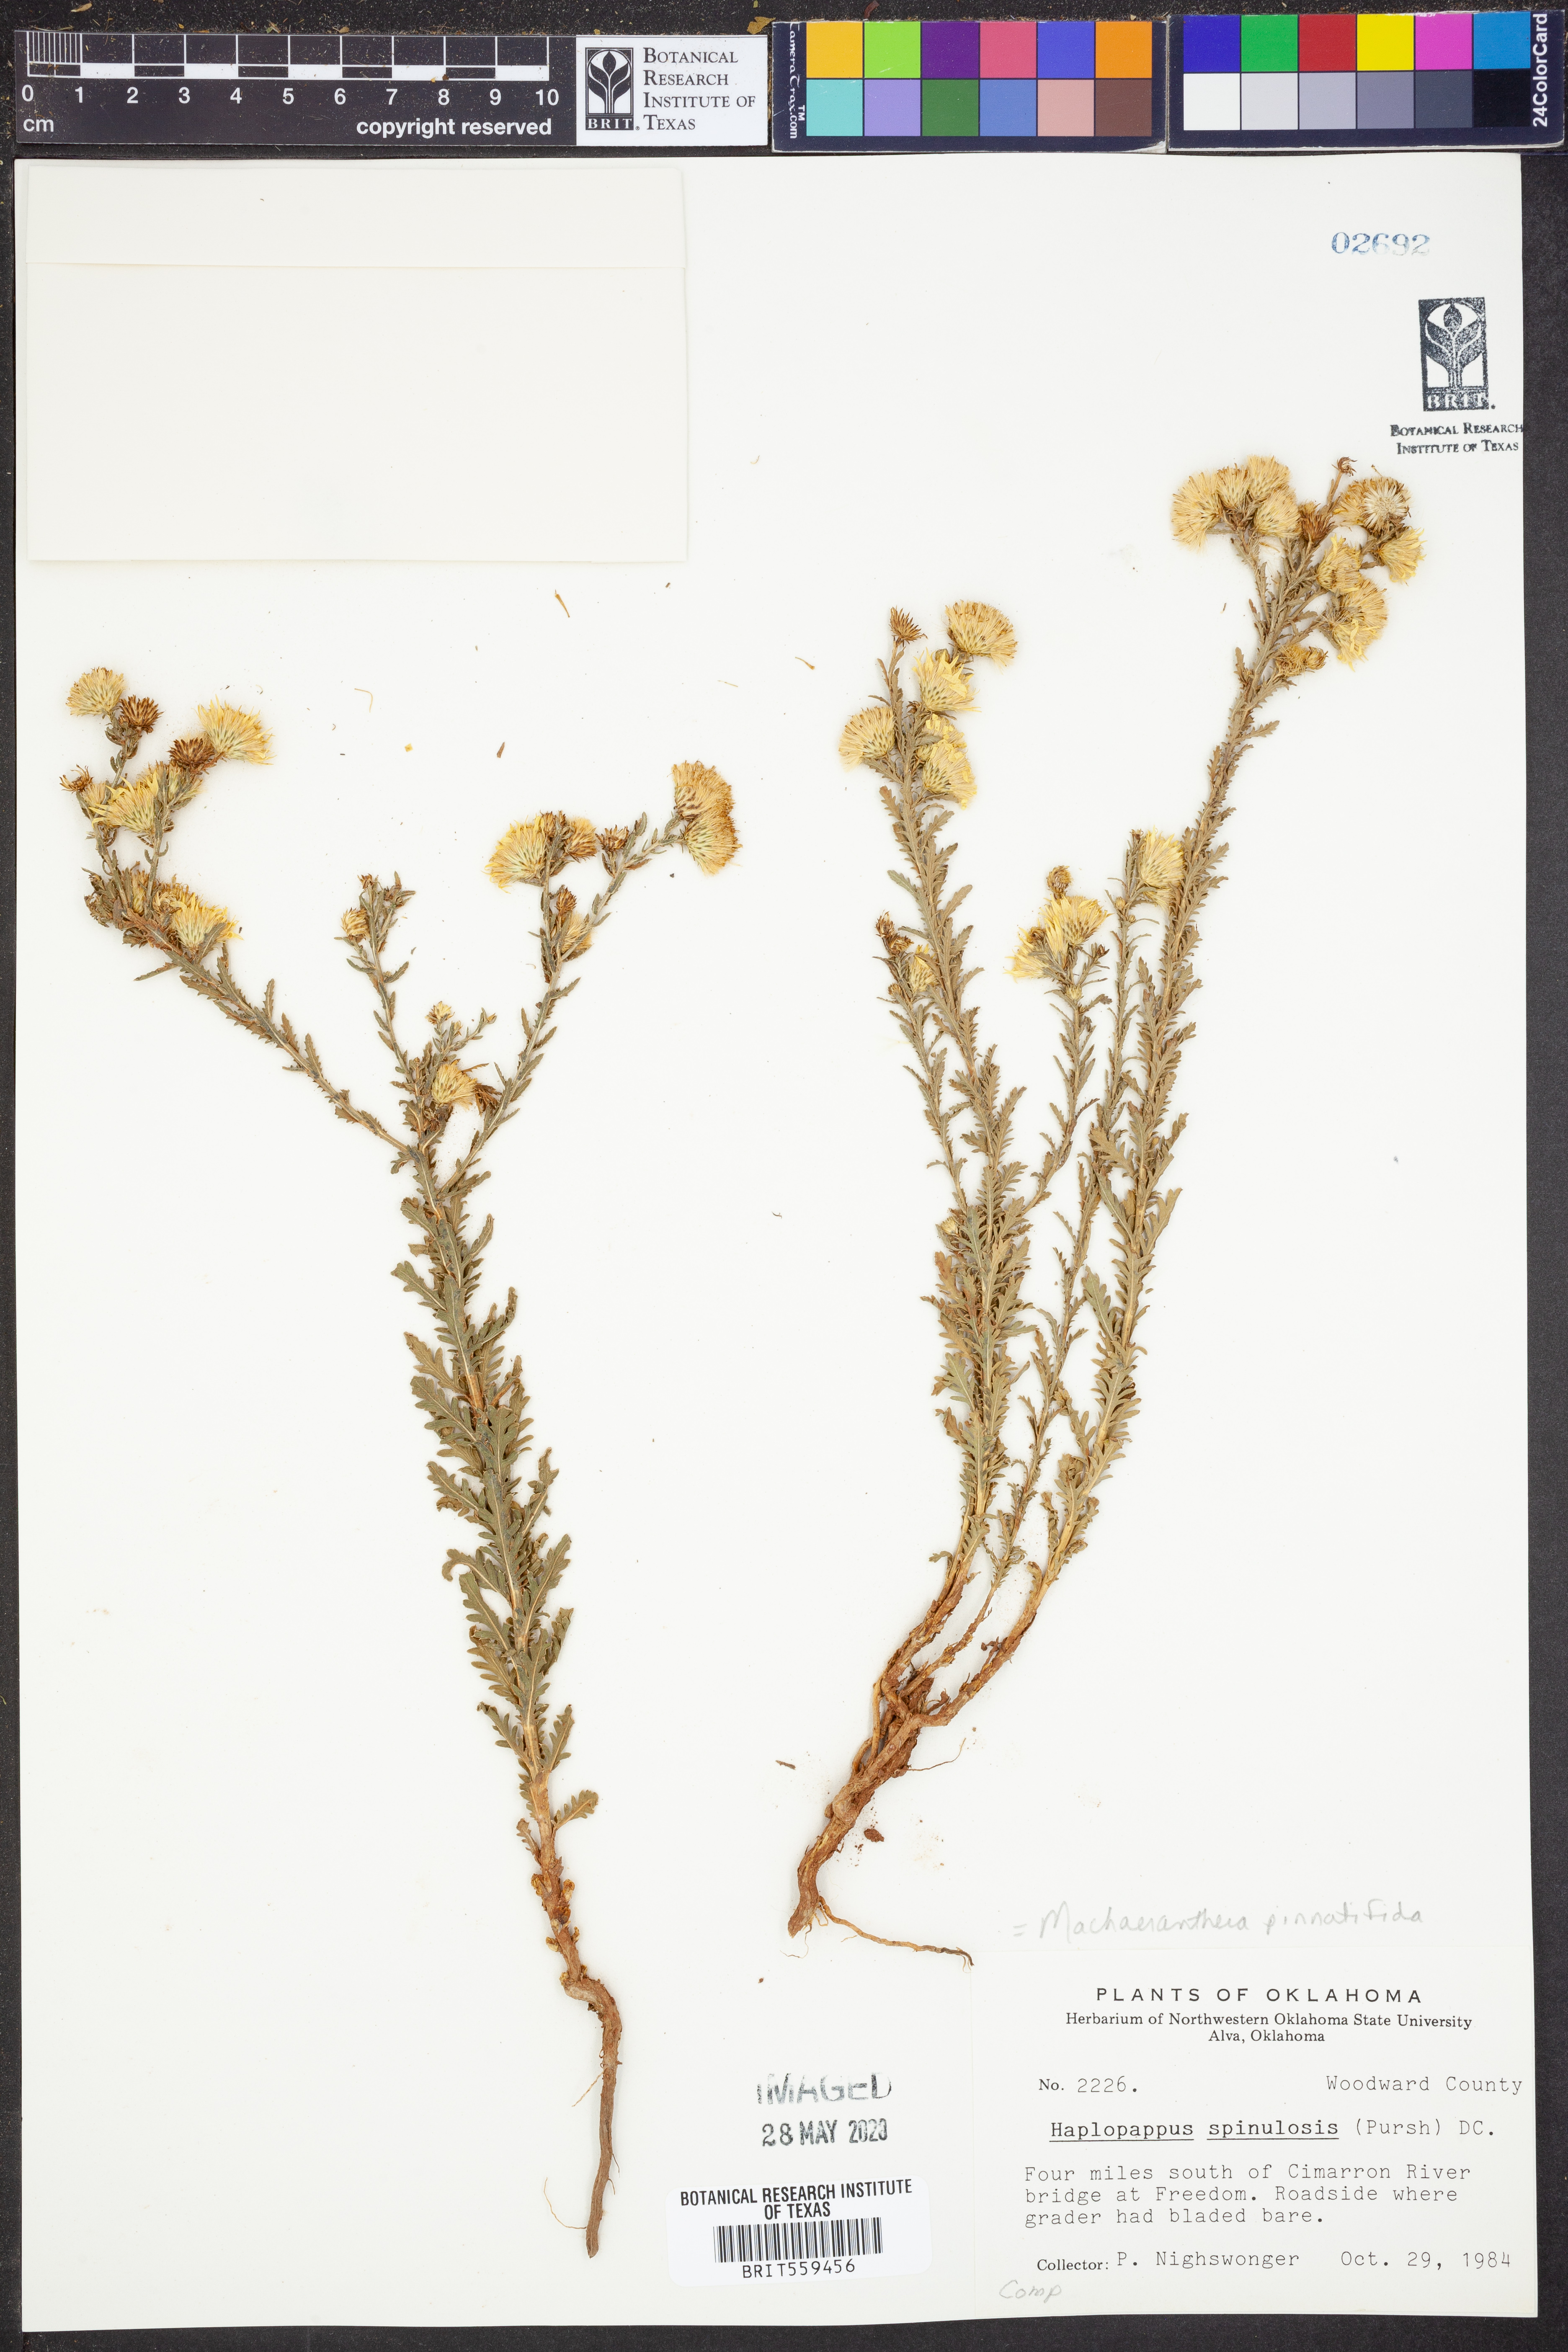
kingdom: Plantae
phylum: Tracheophyta
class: Magnoliopsida
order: Asterales
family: Asteraceae
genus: Xanthisma
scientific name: Xanthisma spinulosum
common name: Spiny goldenweed
